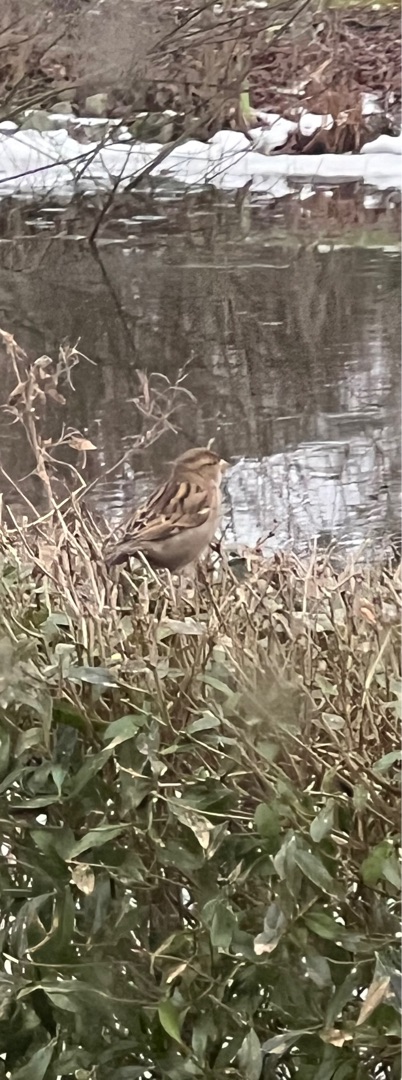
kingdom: Animalia
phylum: Chordata
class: Aves
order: Passeriformes
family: Passeridae
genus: Passer
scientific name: Passer domesticus
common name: Gråspurv
